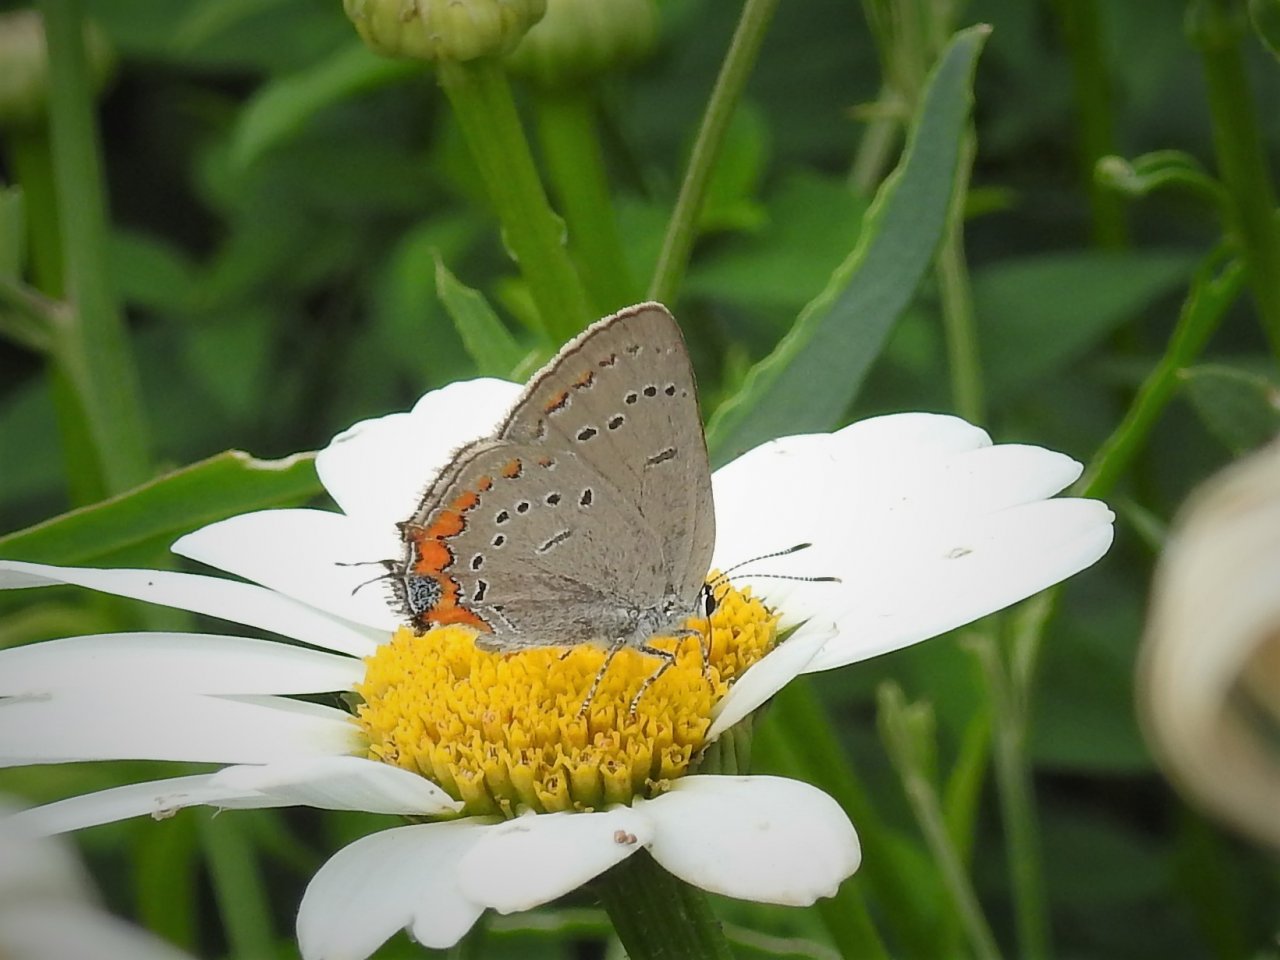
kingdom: Animalia
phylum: Arthropoda
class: Insecta
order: Lepidoptera
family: Lycaenidae
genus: Strymon
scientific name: Strymon acadica
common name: Acadian Hairstreak
